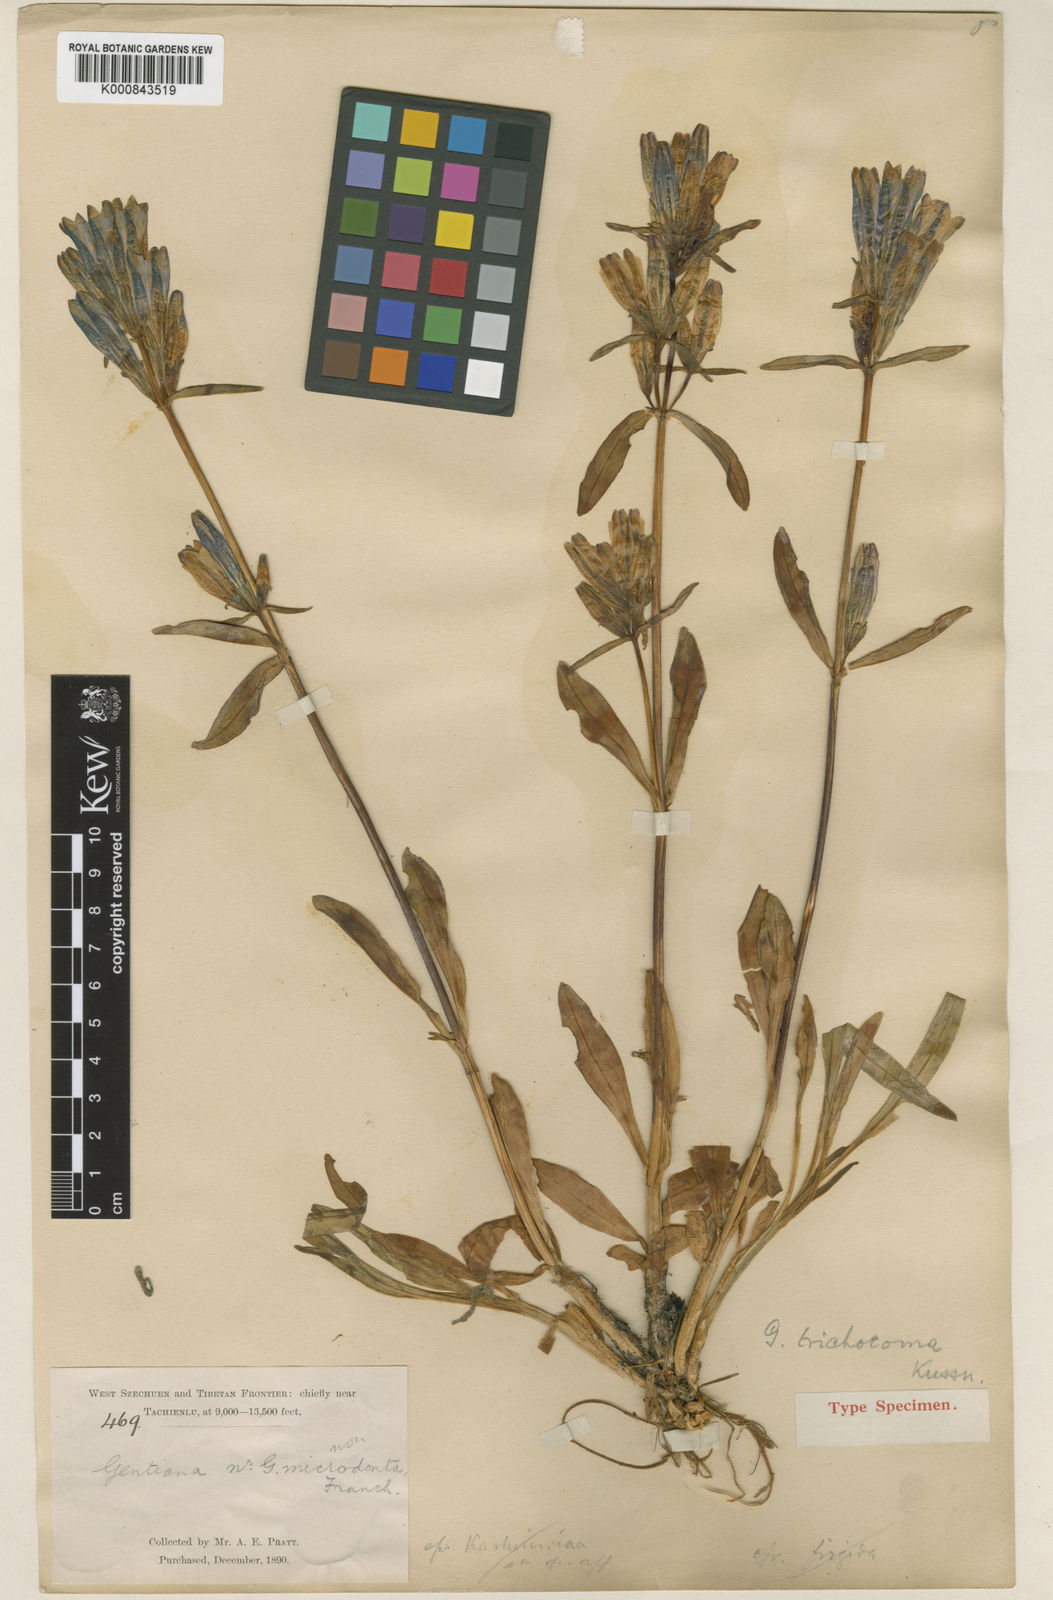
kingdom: Plantae
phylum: Tracheophyta
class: Magnoliopsida
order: Gentianales
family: Gentianaceae
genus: Gentiana
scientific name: Gentiana trichotoma
